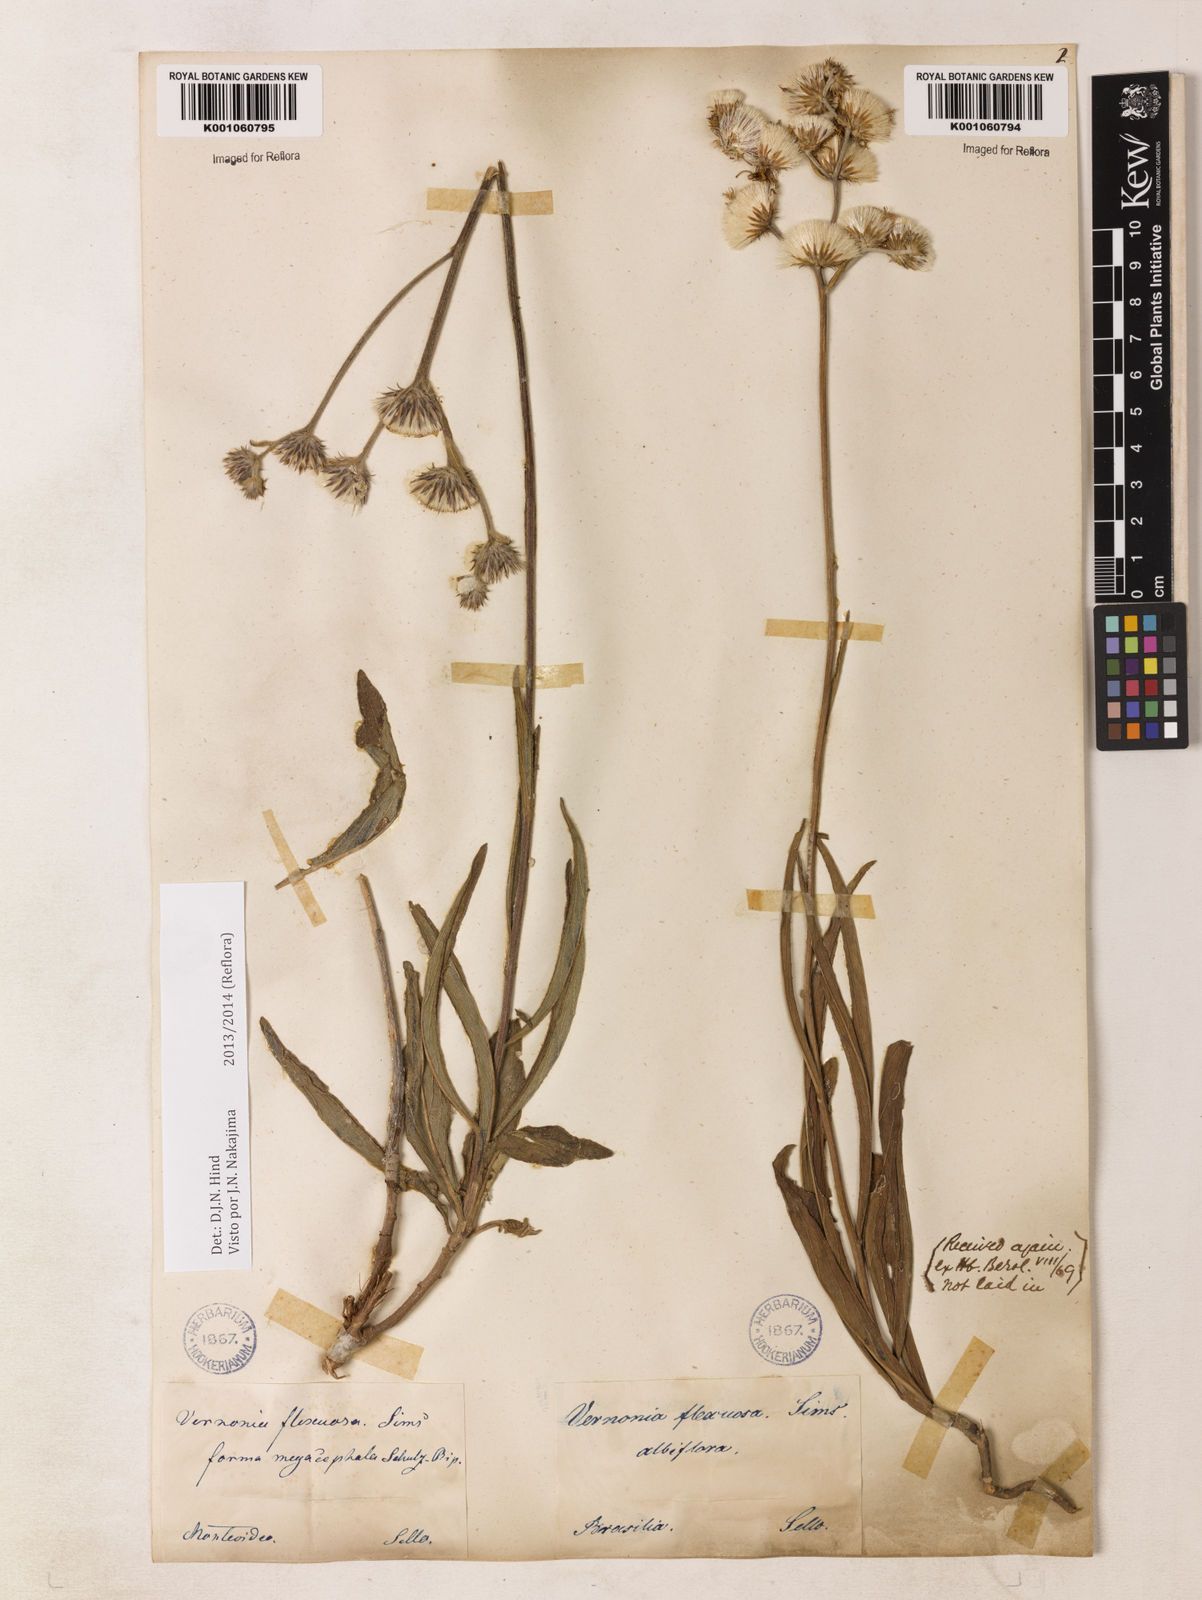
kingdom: Plantae
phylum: Tracheophyta
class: Magnoliopsida
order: Asterales
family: Asteraceae
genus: Chrysolaena
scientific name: Chrysolaena flexuosa
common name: Zig-zag vernonia
